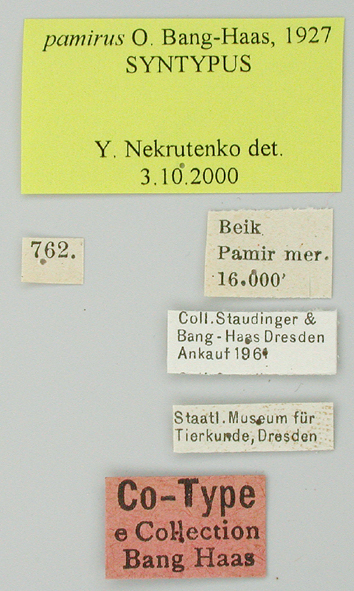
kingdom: Animalia
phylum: Arthropoda
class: Insecta
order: Lepidoptera
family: Papilionidae
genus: Parnassius
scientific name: Parnassius jacquemontii
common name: Keeled apollo
